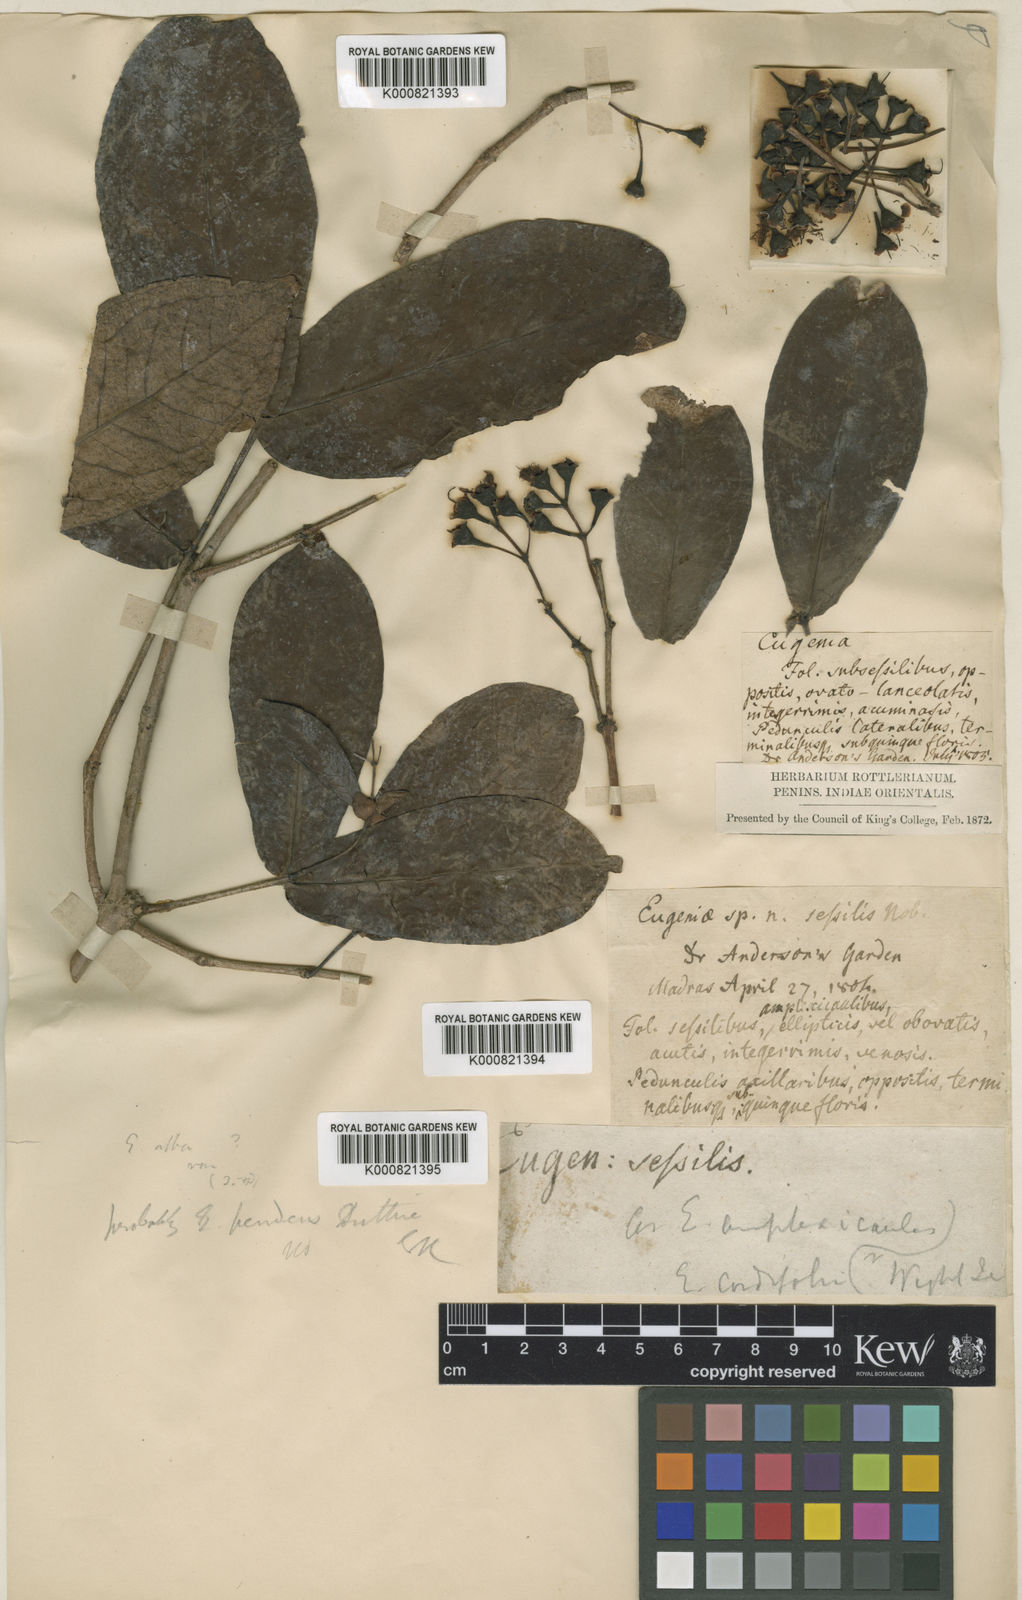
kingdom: Plantae
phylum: Tracheophyta
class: Magnoliopsida
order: Myrtales
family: Myrtaceae
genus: Syzygium
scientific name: Syzygium korthalsianum
